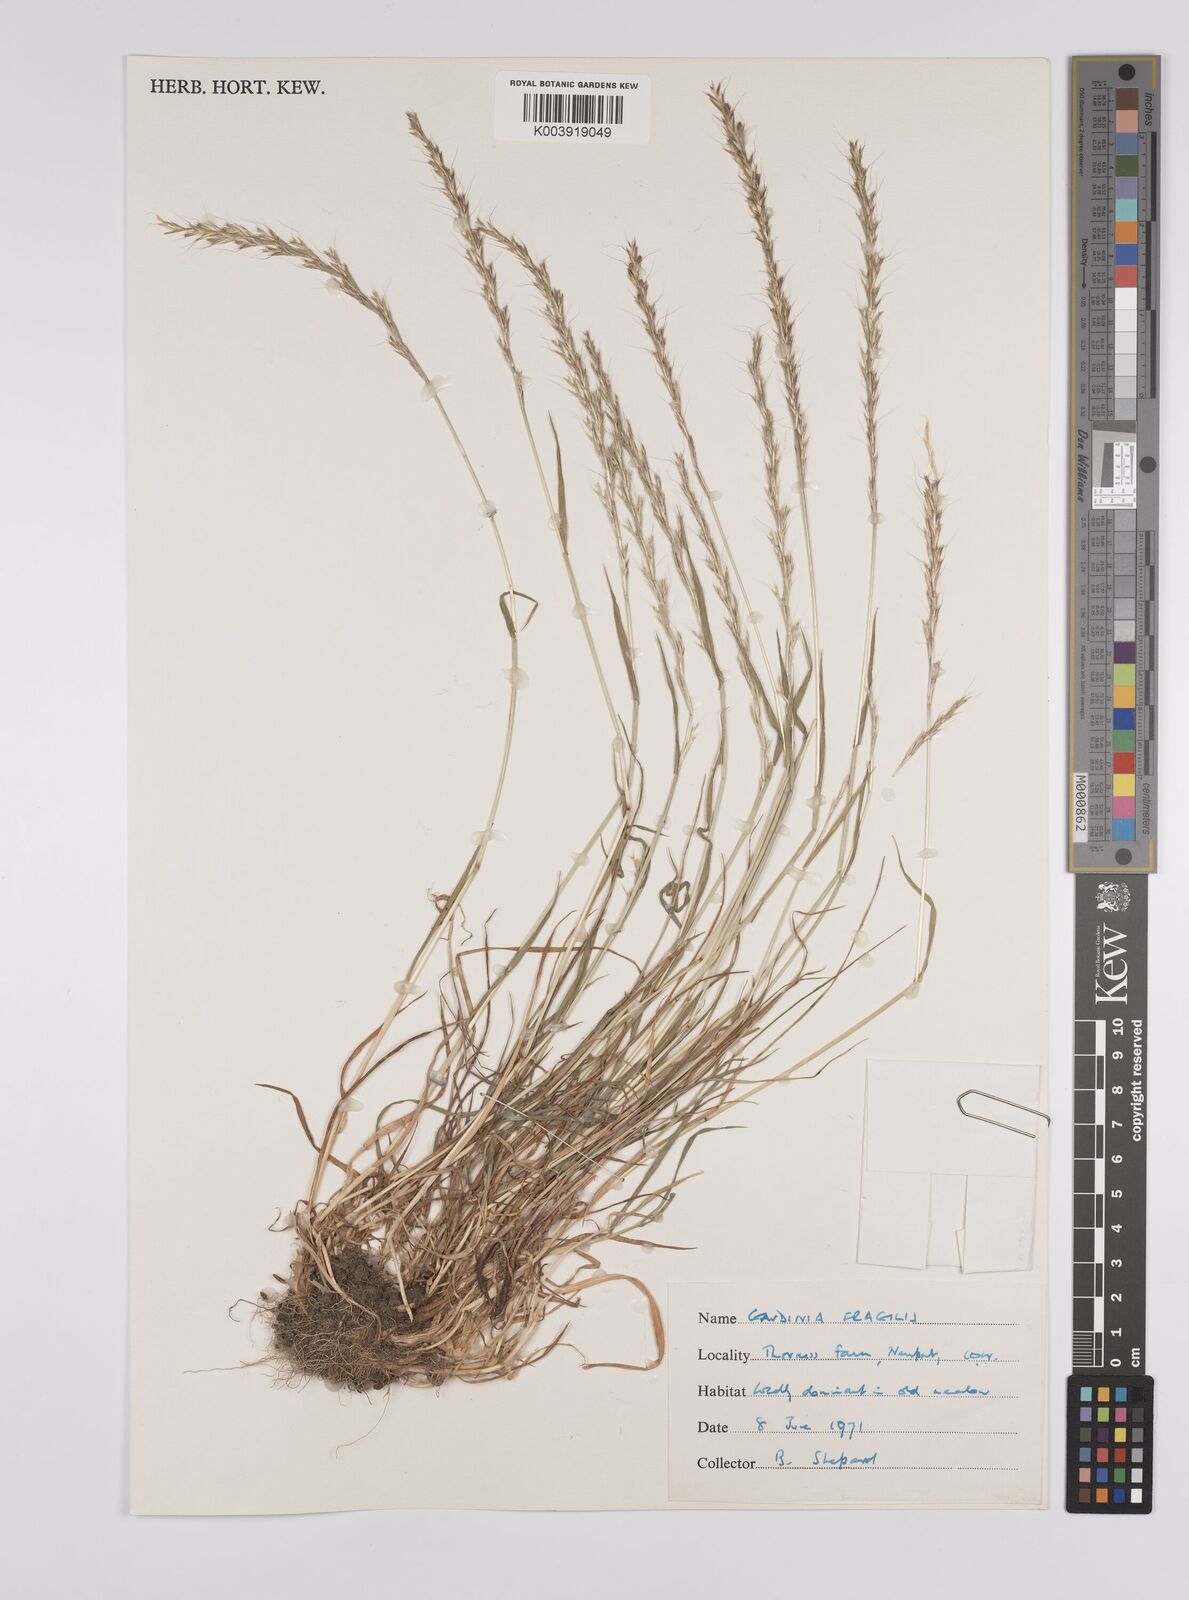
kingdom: Plantae
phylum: Tracheophyta
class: Liliopsida
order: Poales
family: Poaceae
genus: Gaudinia
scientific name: Gaudinia fragilis
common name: French oat-grass
